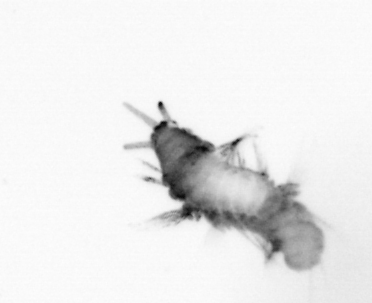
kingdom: Animalia
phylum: Annelida
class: Polychaeta
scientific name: Polychaeta
